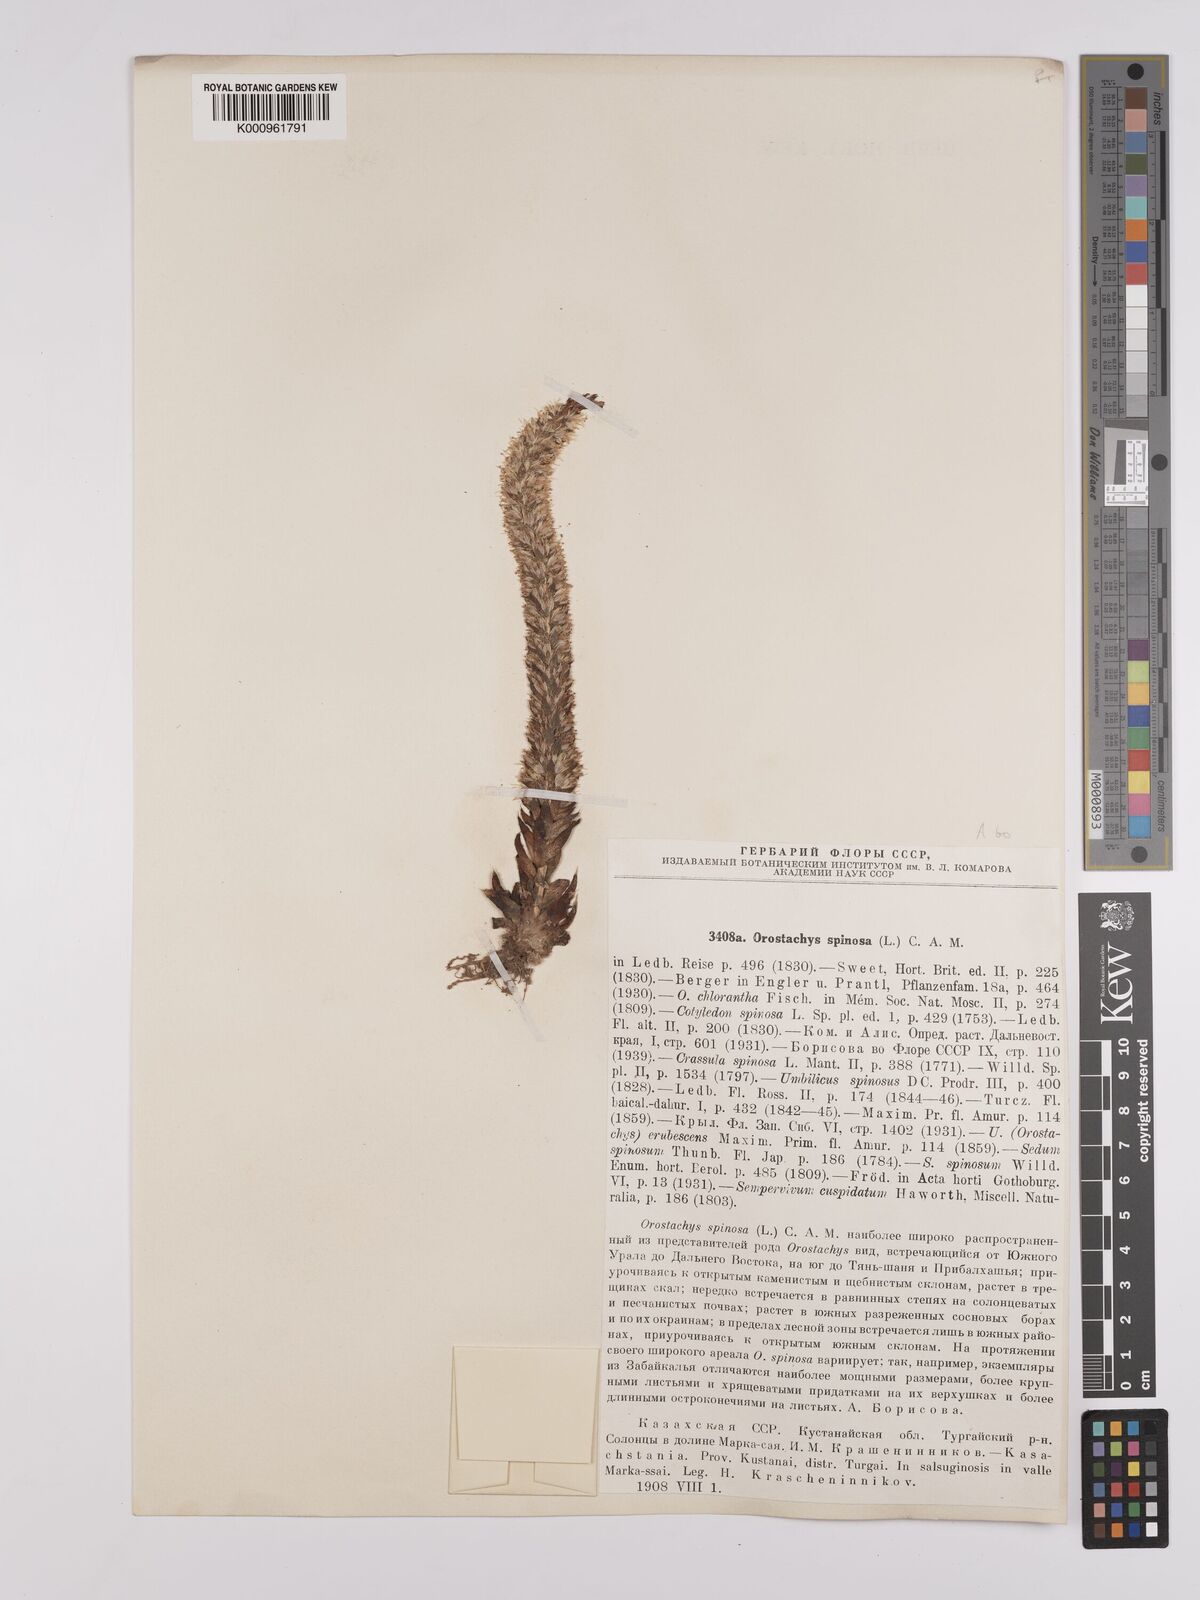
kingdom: Plantae
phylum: Tracheophyta
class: Magnoliopsida
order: Saxifragales
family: Crassulaceae
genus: Orostachys
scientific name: Orostachys spinosa
